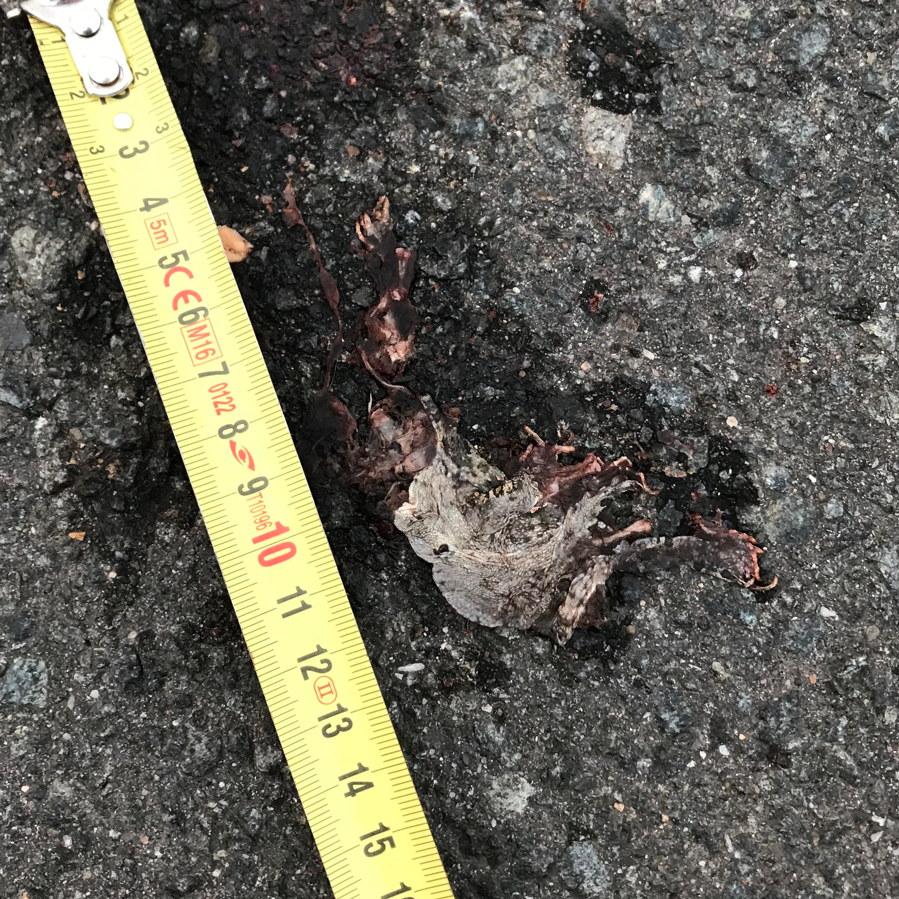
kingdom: Animalia
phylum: Chordata
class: Amphibia
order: Anura
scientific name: Anura
